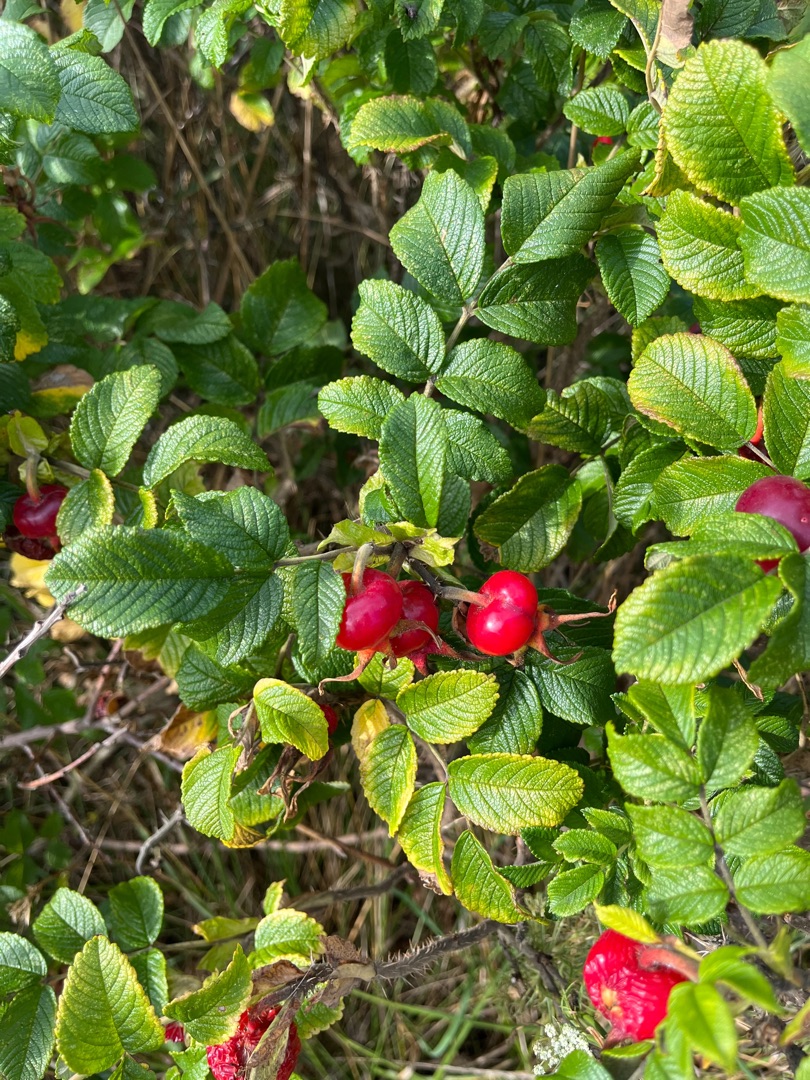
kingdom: Plantae
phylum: Tracheophyta
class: Magnoliopsida
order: Rosales
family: Rosaceae
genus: Rosa
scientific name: Rosa rugosa
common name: Rynket rose
